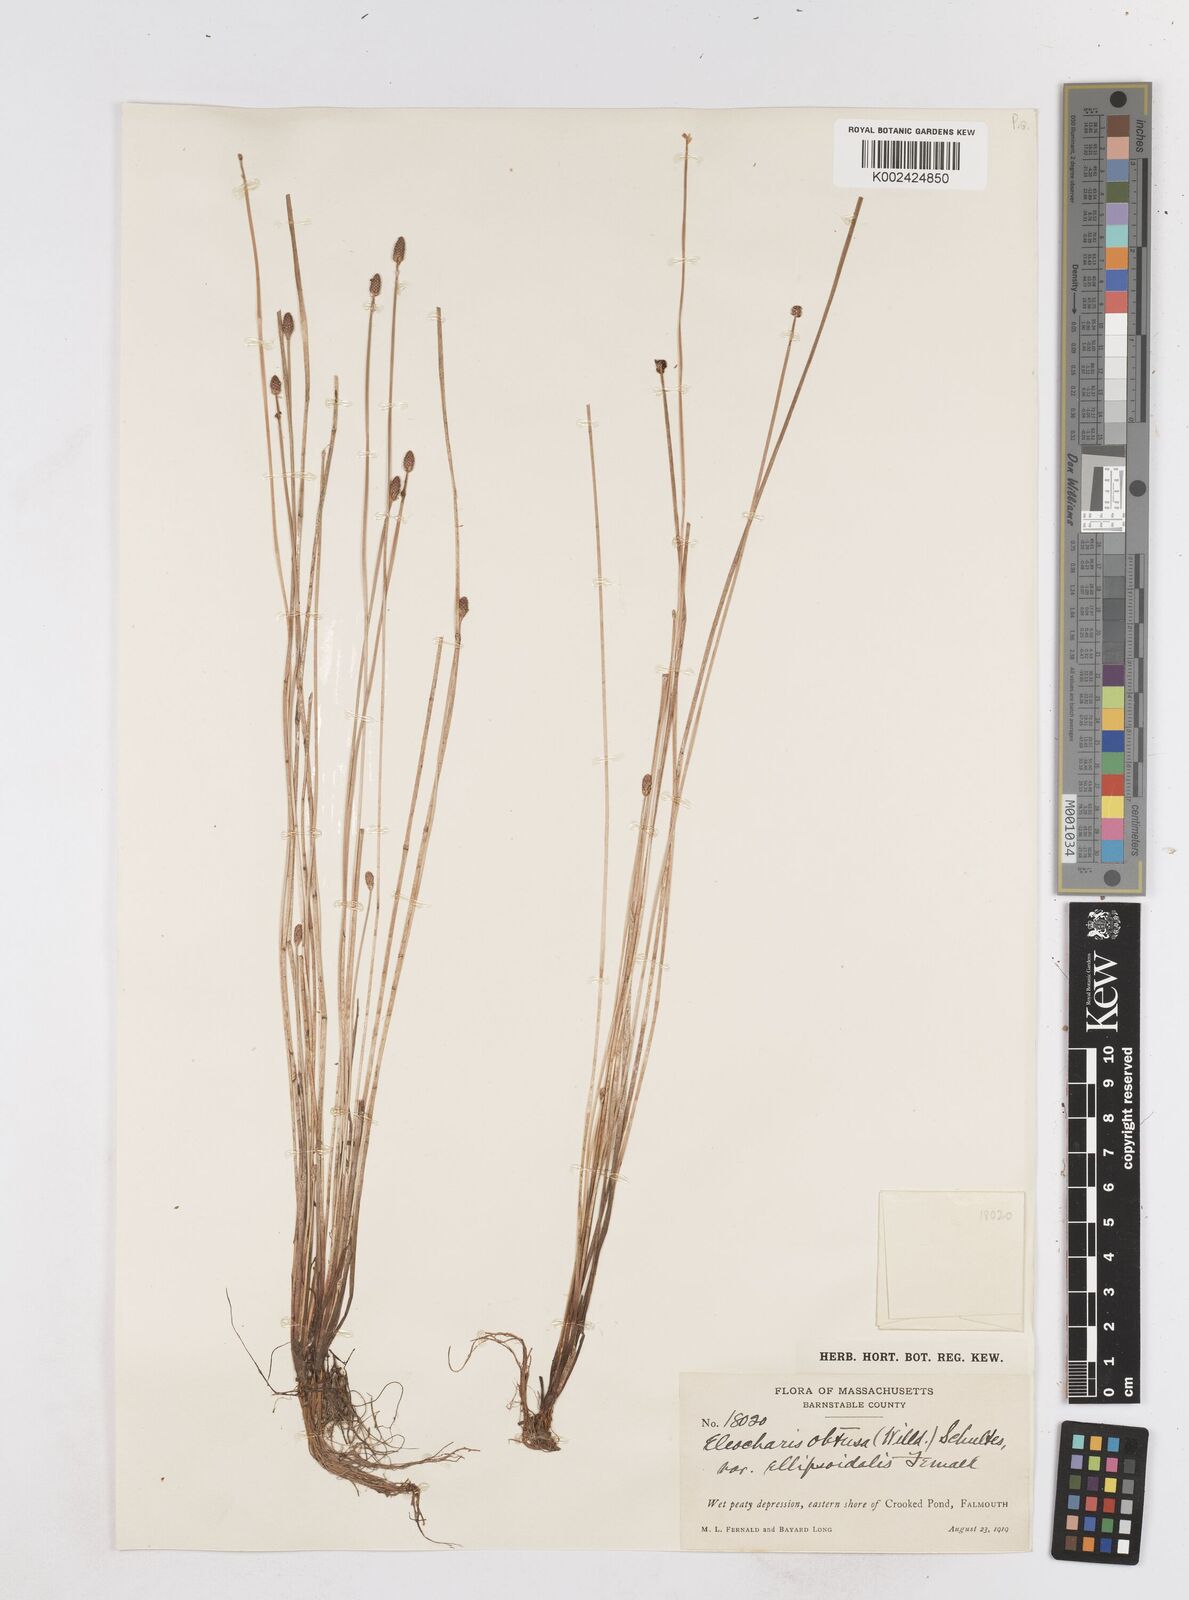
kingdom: Plantae
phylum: Tracheophyta
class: Liliopsida
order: Poales
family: Cyperaceae
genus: Eleocharis
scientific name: Eleocharis obtusa
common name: Blunt spikerush
